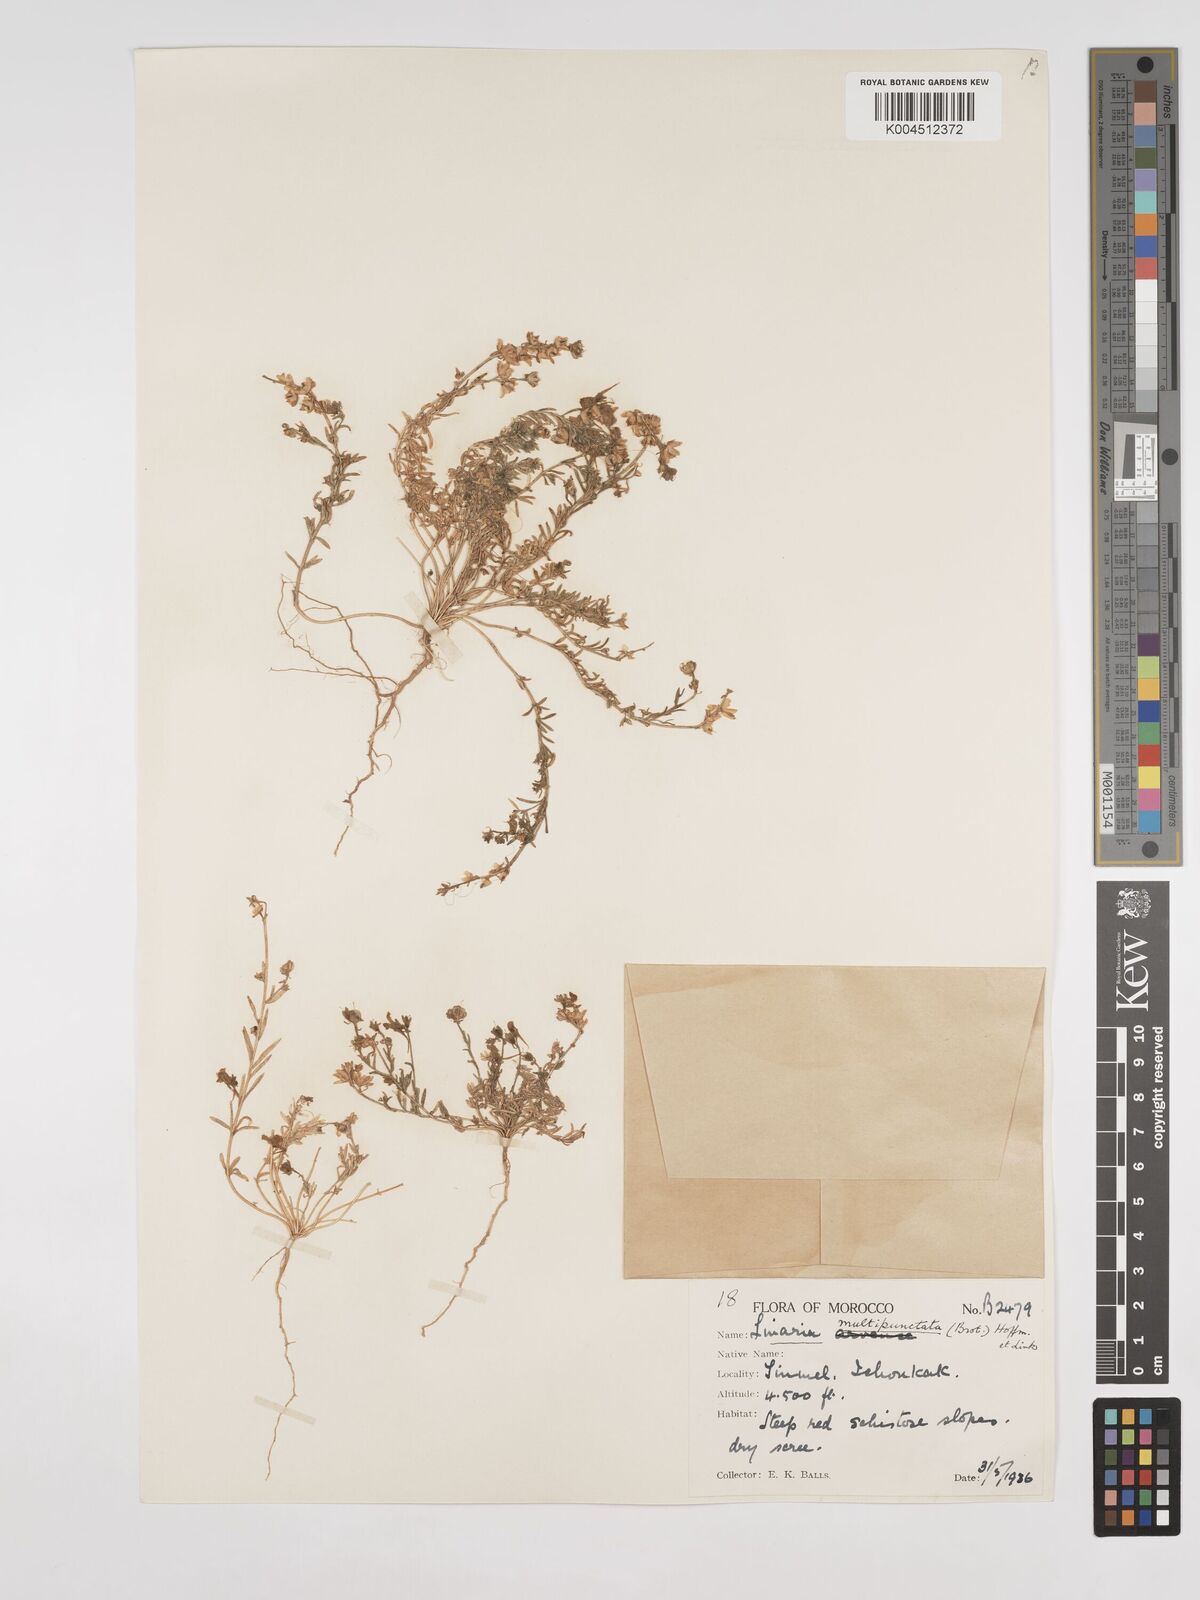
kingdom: Plantae
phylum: Tracheophyta
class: Magnoliopsida
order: Lamiales
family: Plantaginaceae
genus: Linaria
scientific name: Linaria
